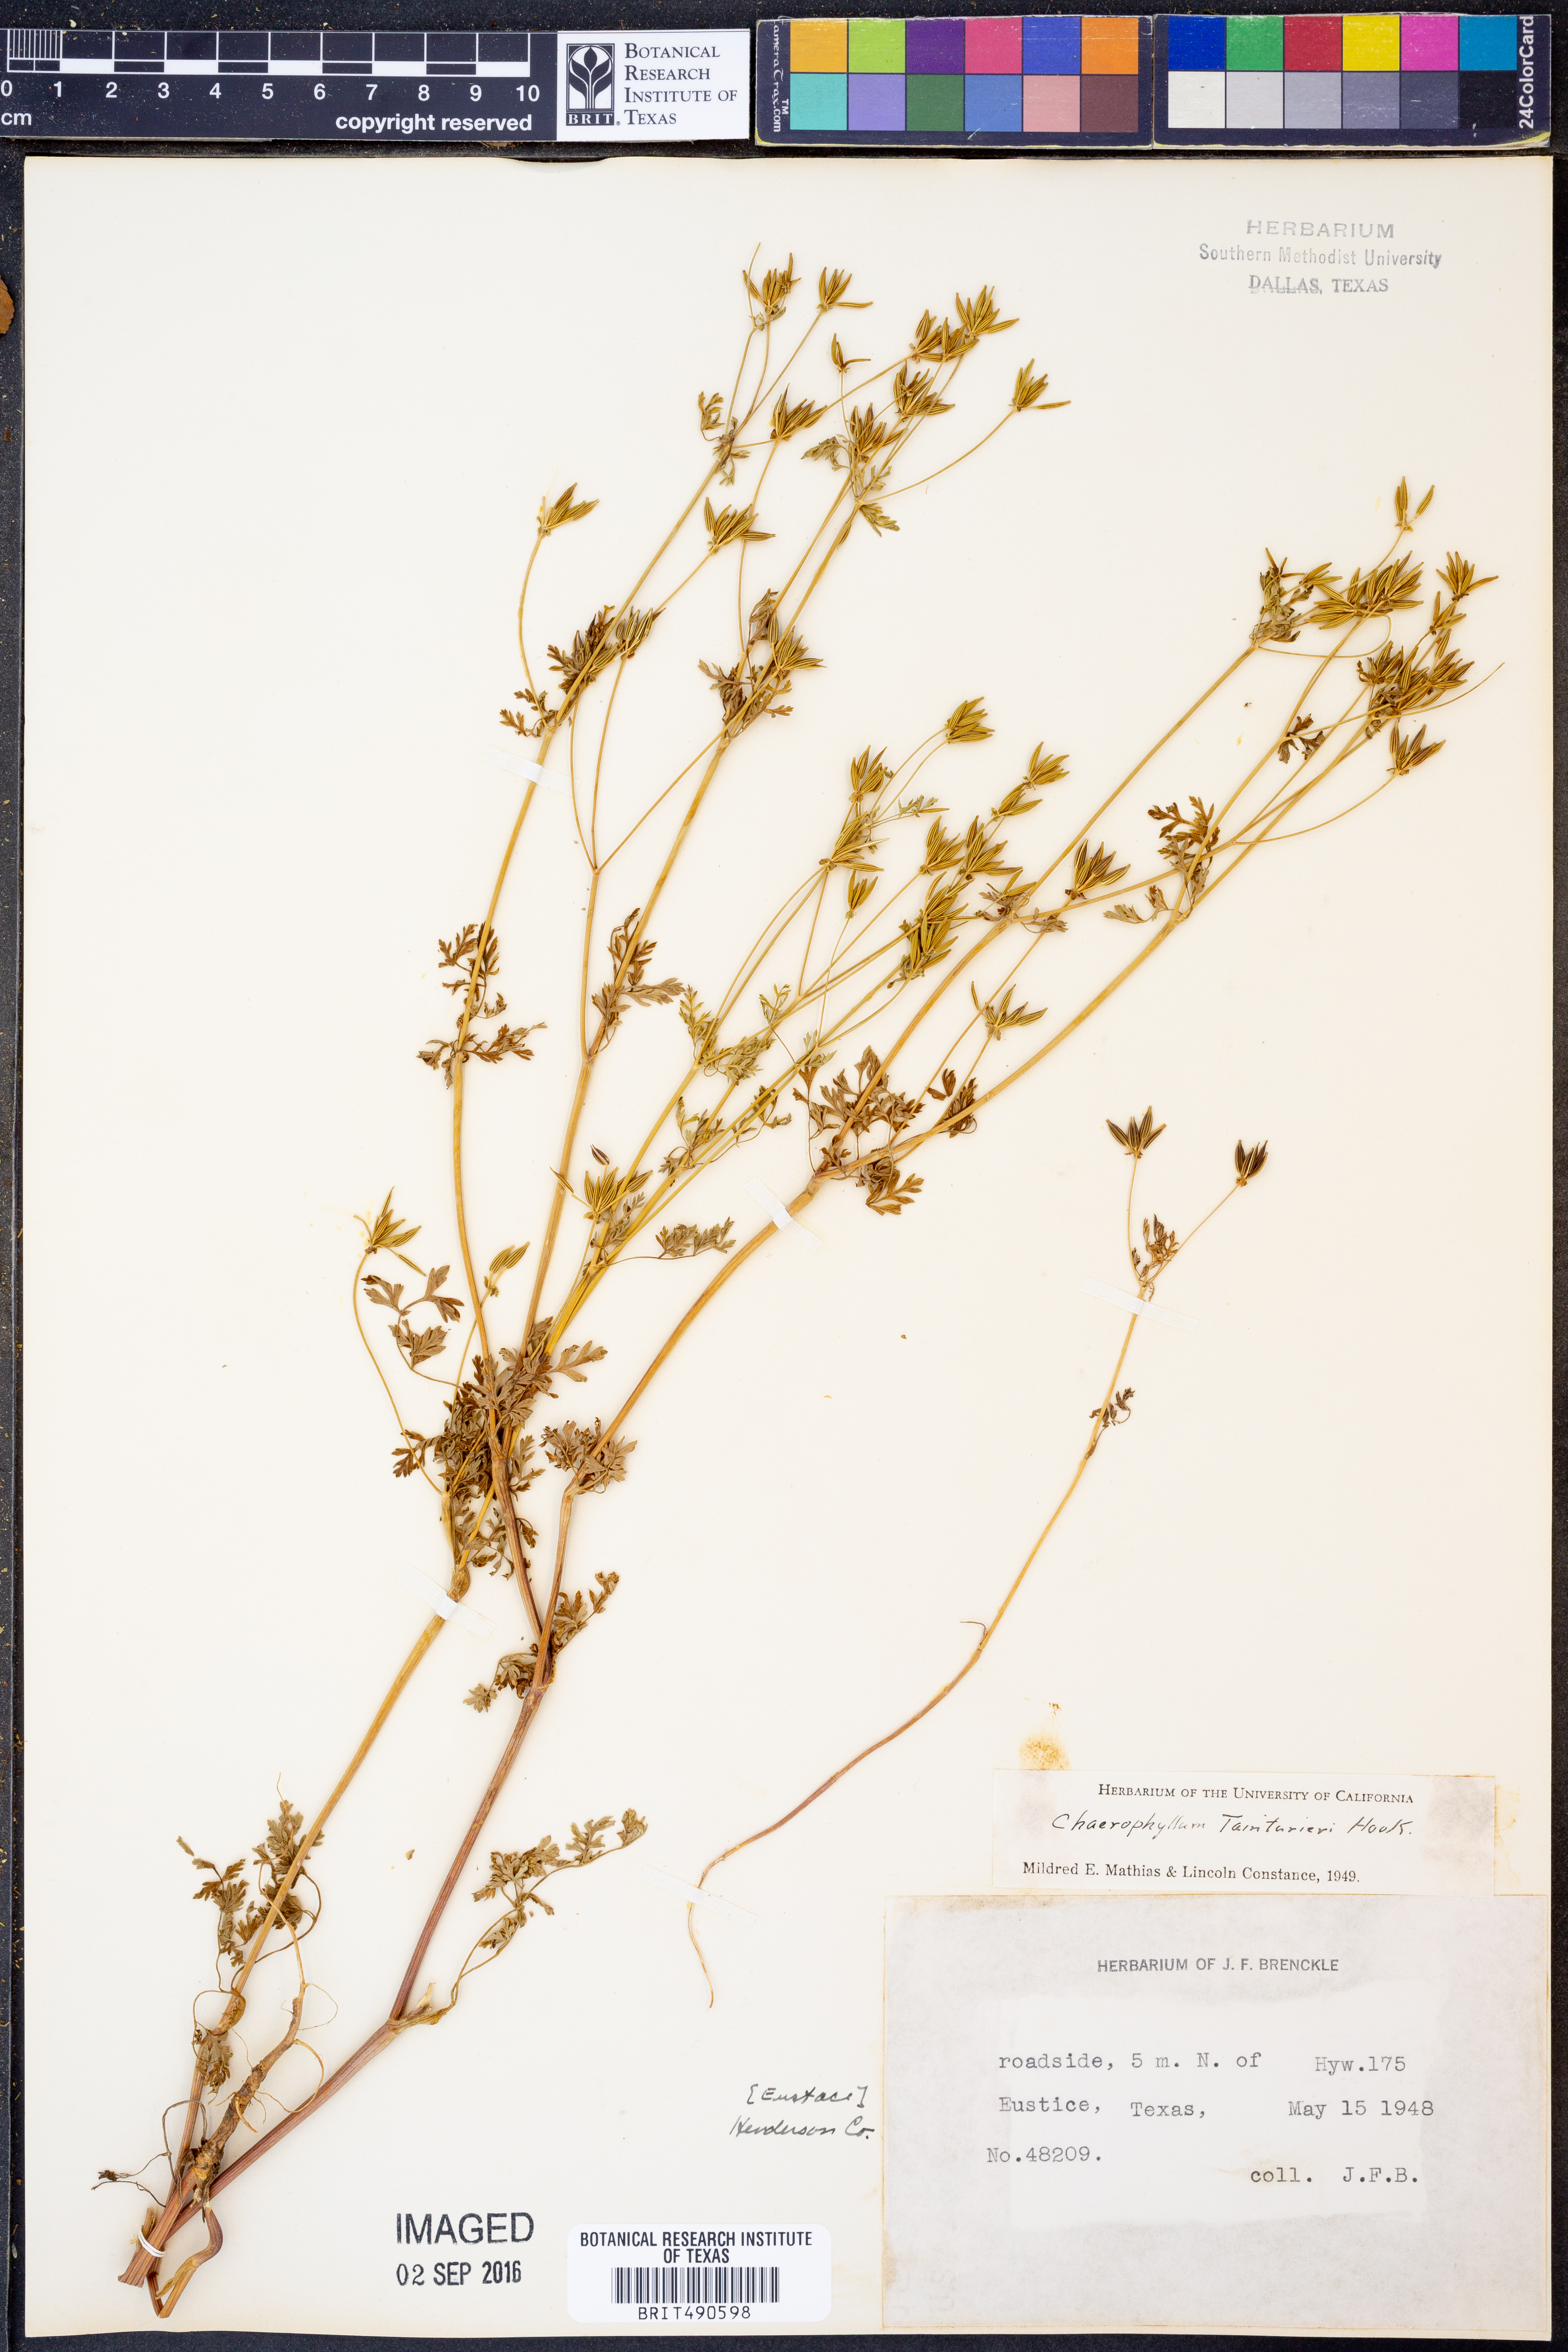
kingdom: Plantae
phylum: Tracheophyta
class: Magnoliopsida
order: Apiales
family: Apiaceae
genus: Chaerophyllum
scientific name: Chaerophyllum tainturieri
